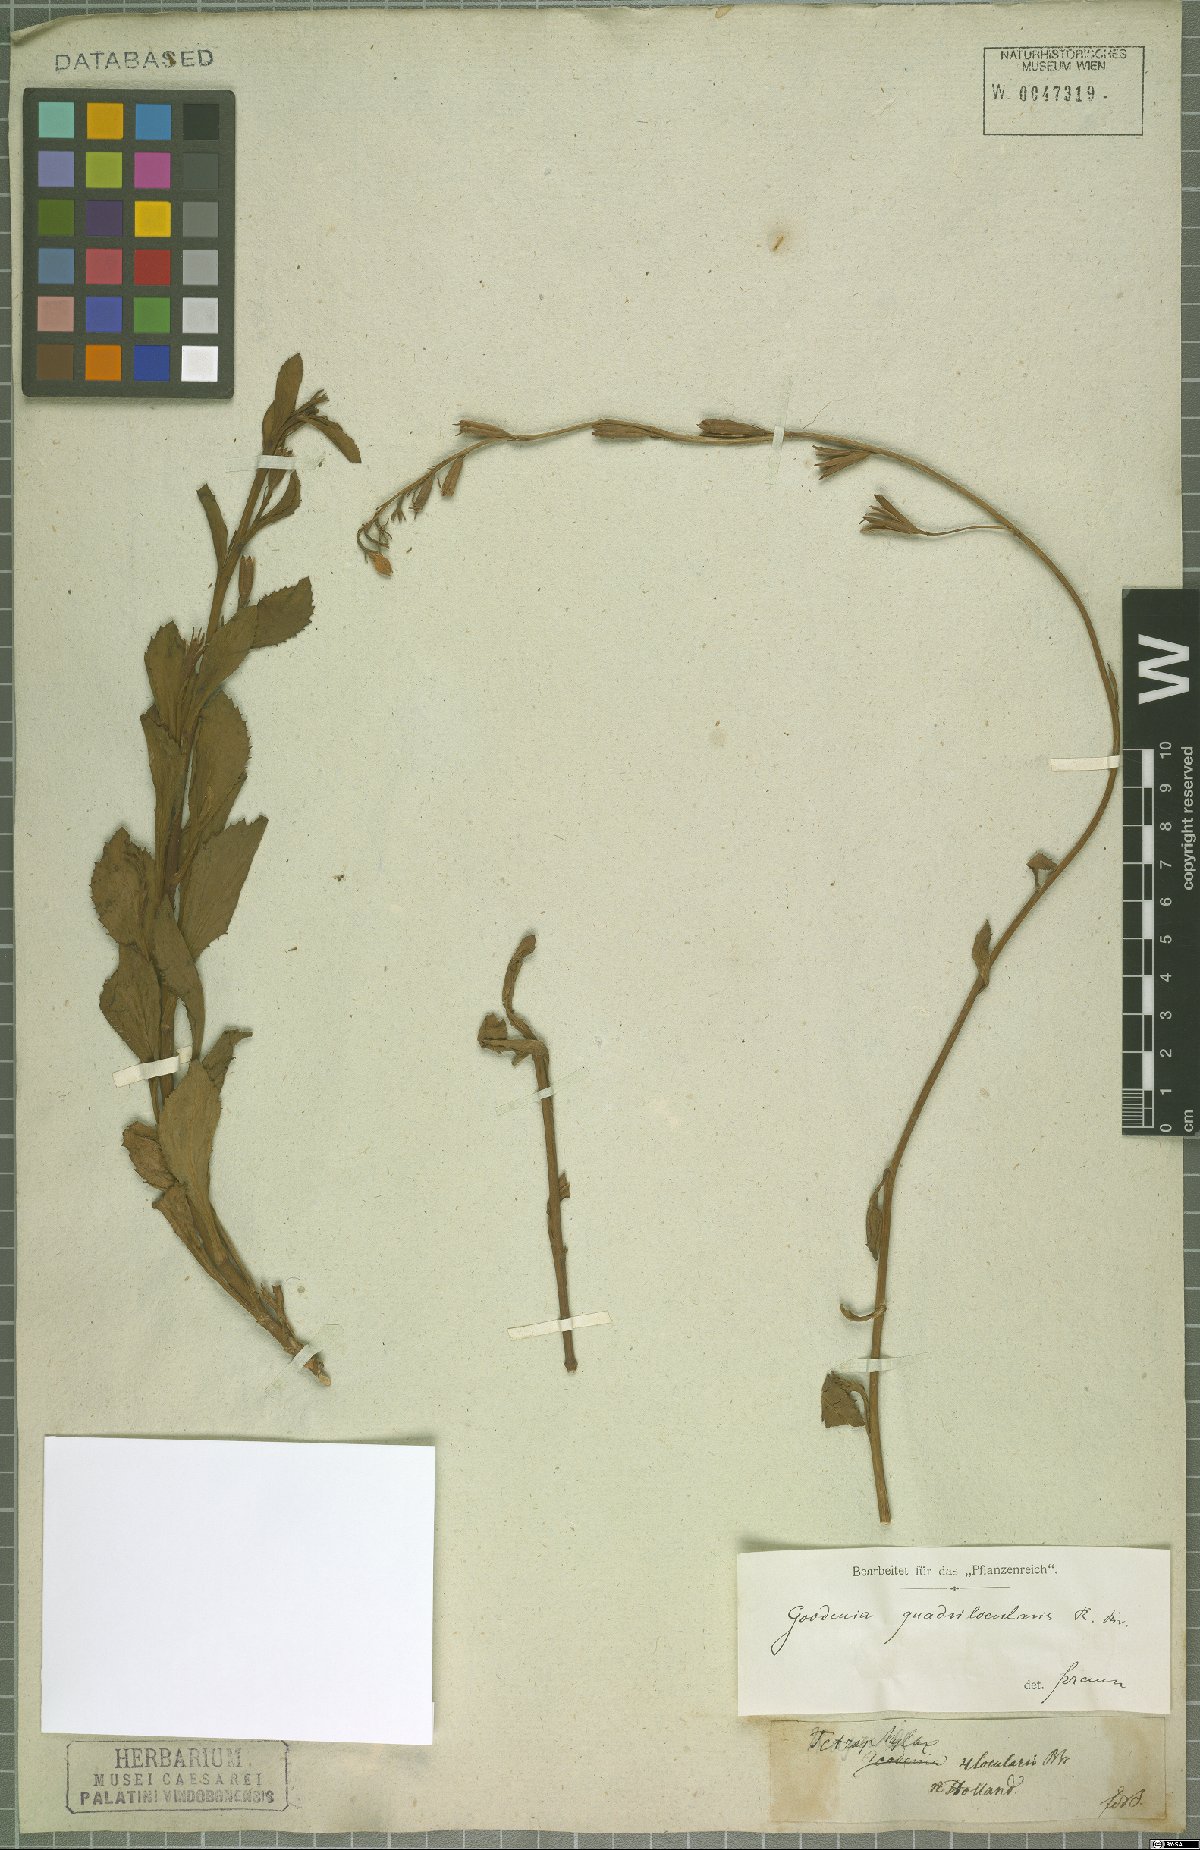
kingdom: Plantae
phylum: Tracheophyta
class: Magnoliopsida
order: Asterales
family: Goodeniaceae
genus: Goodenia
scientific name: Goodenia quadrilocularis
